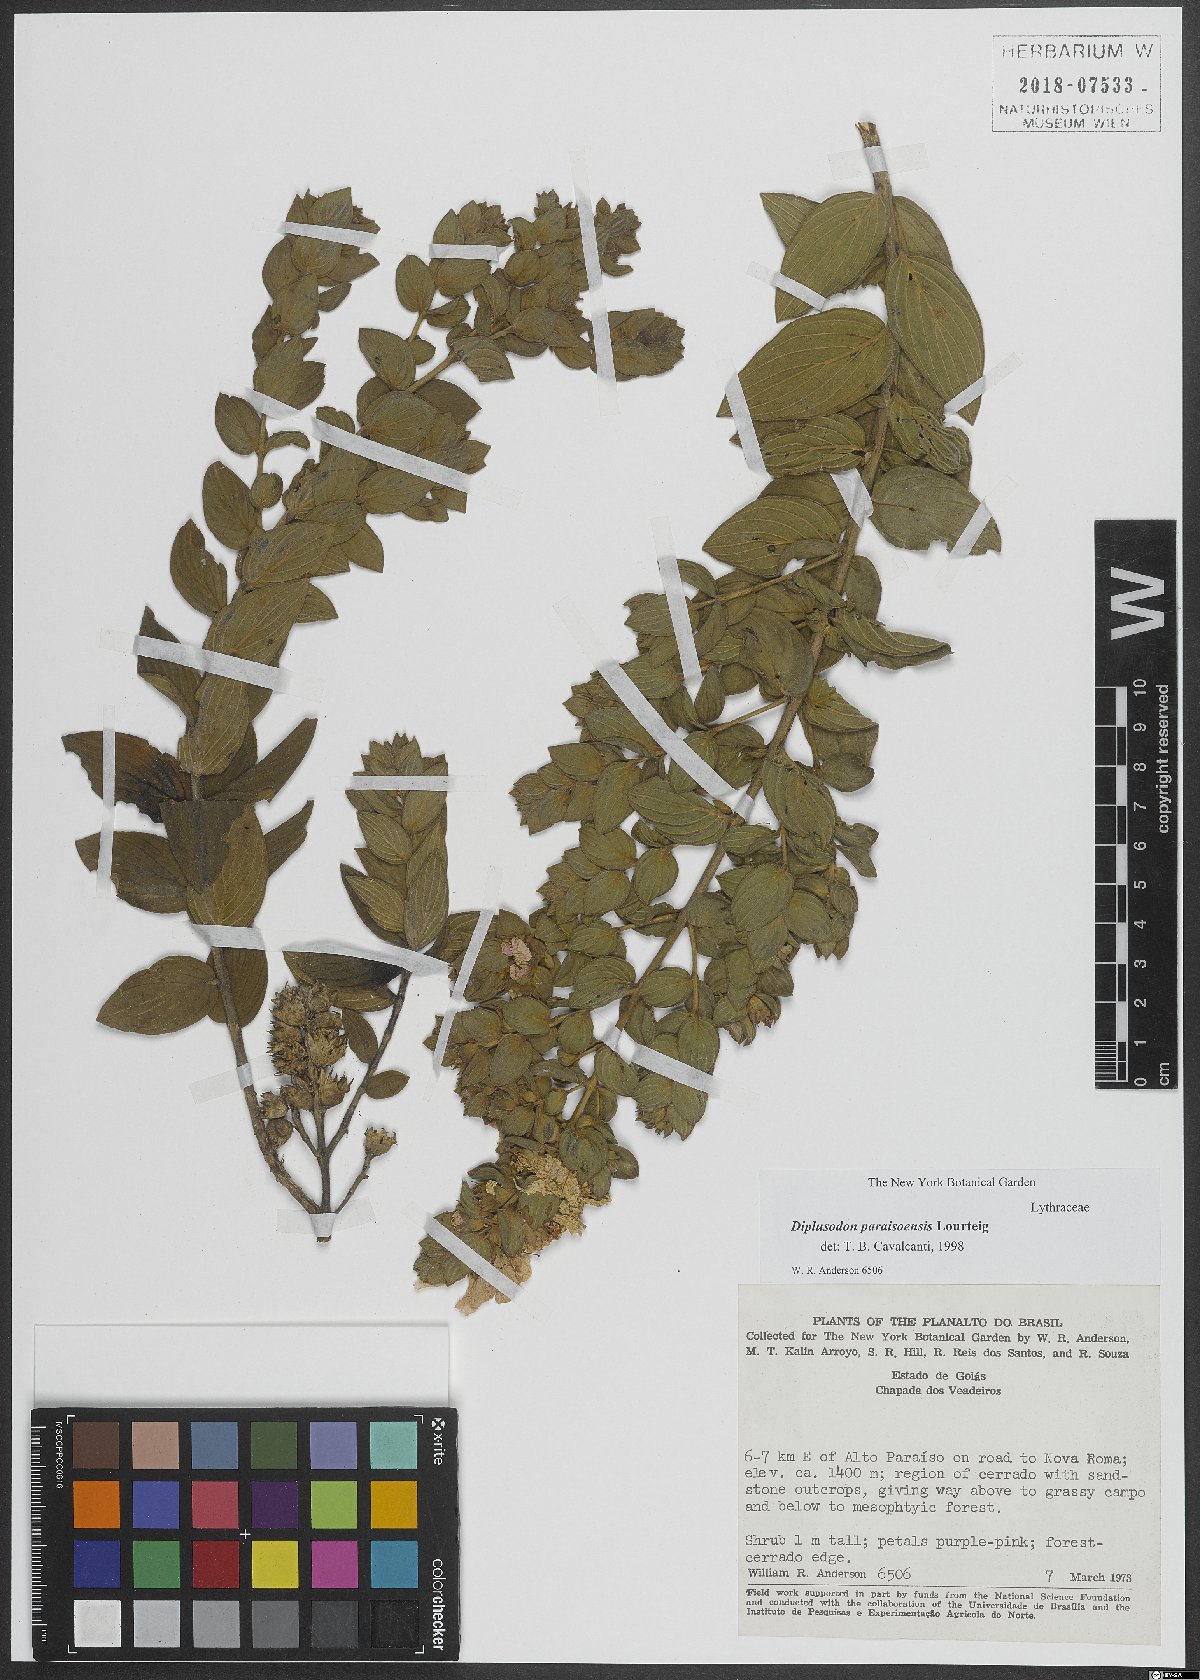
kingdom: Plantae
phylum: Tracheophyta
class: Magnoliopsida
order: Myrtales
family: Lythraceae
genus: Diplusodon
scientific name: Diplusodon
